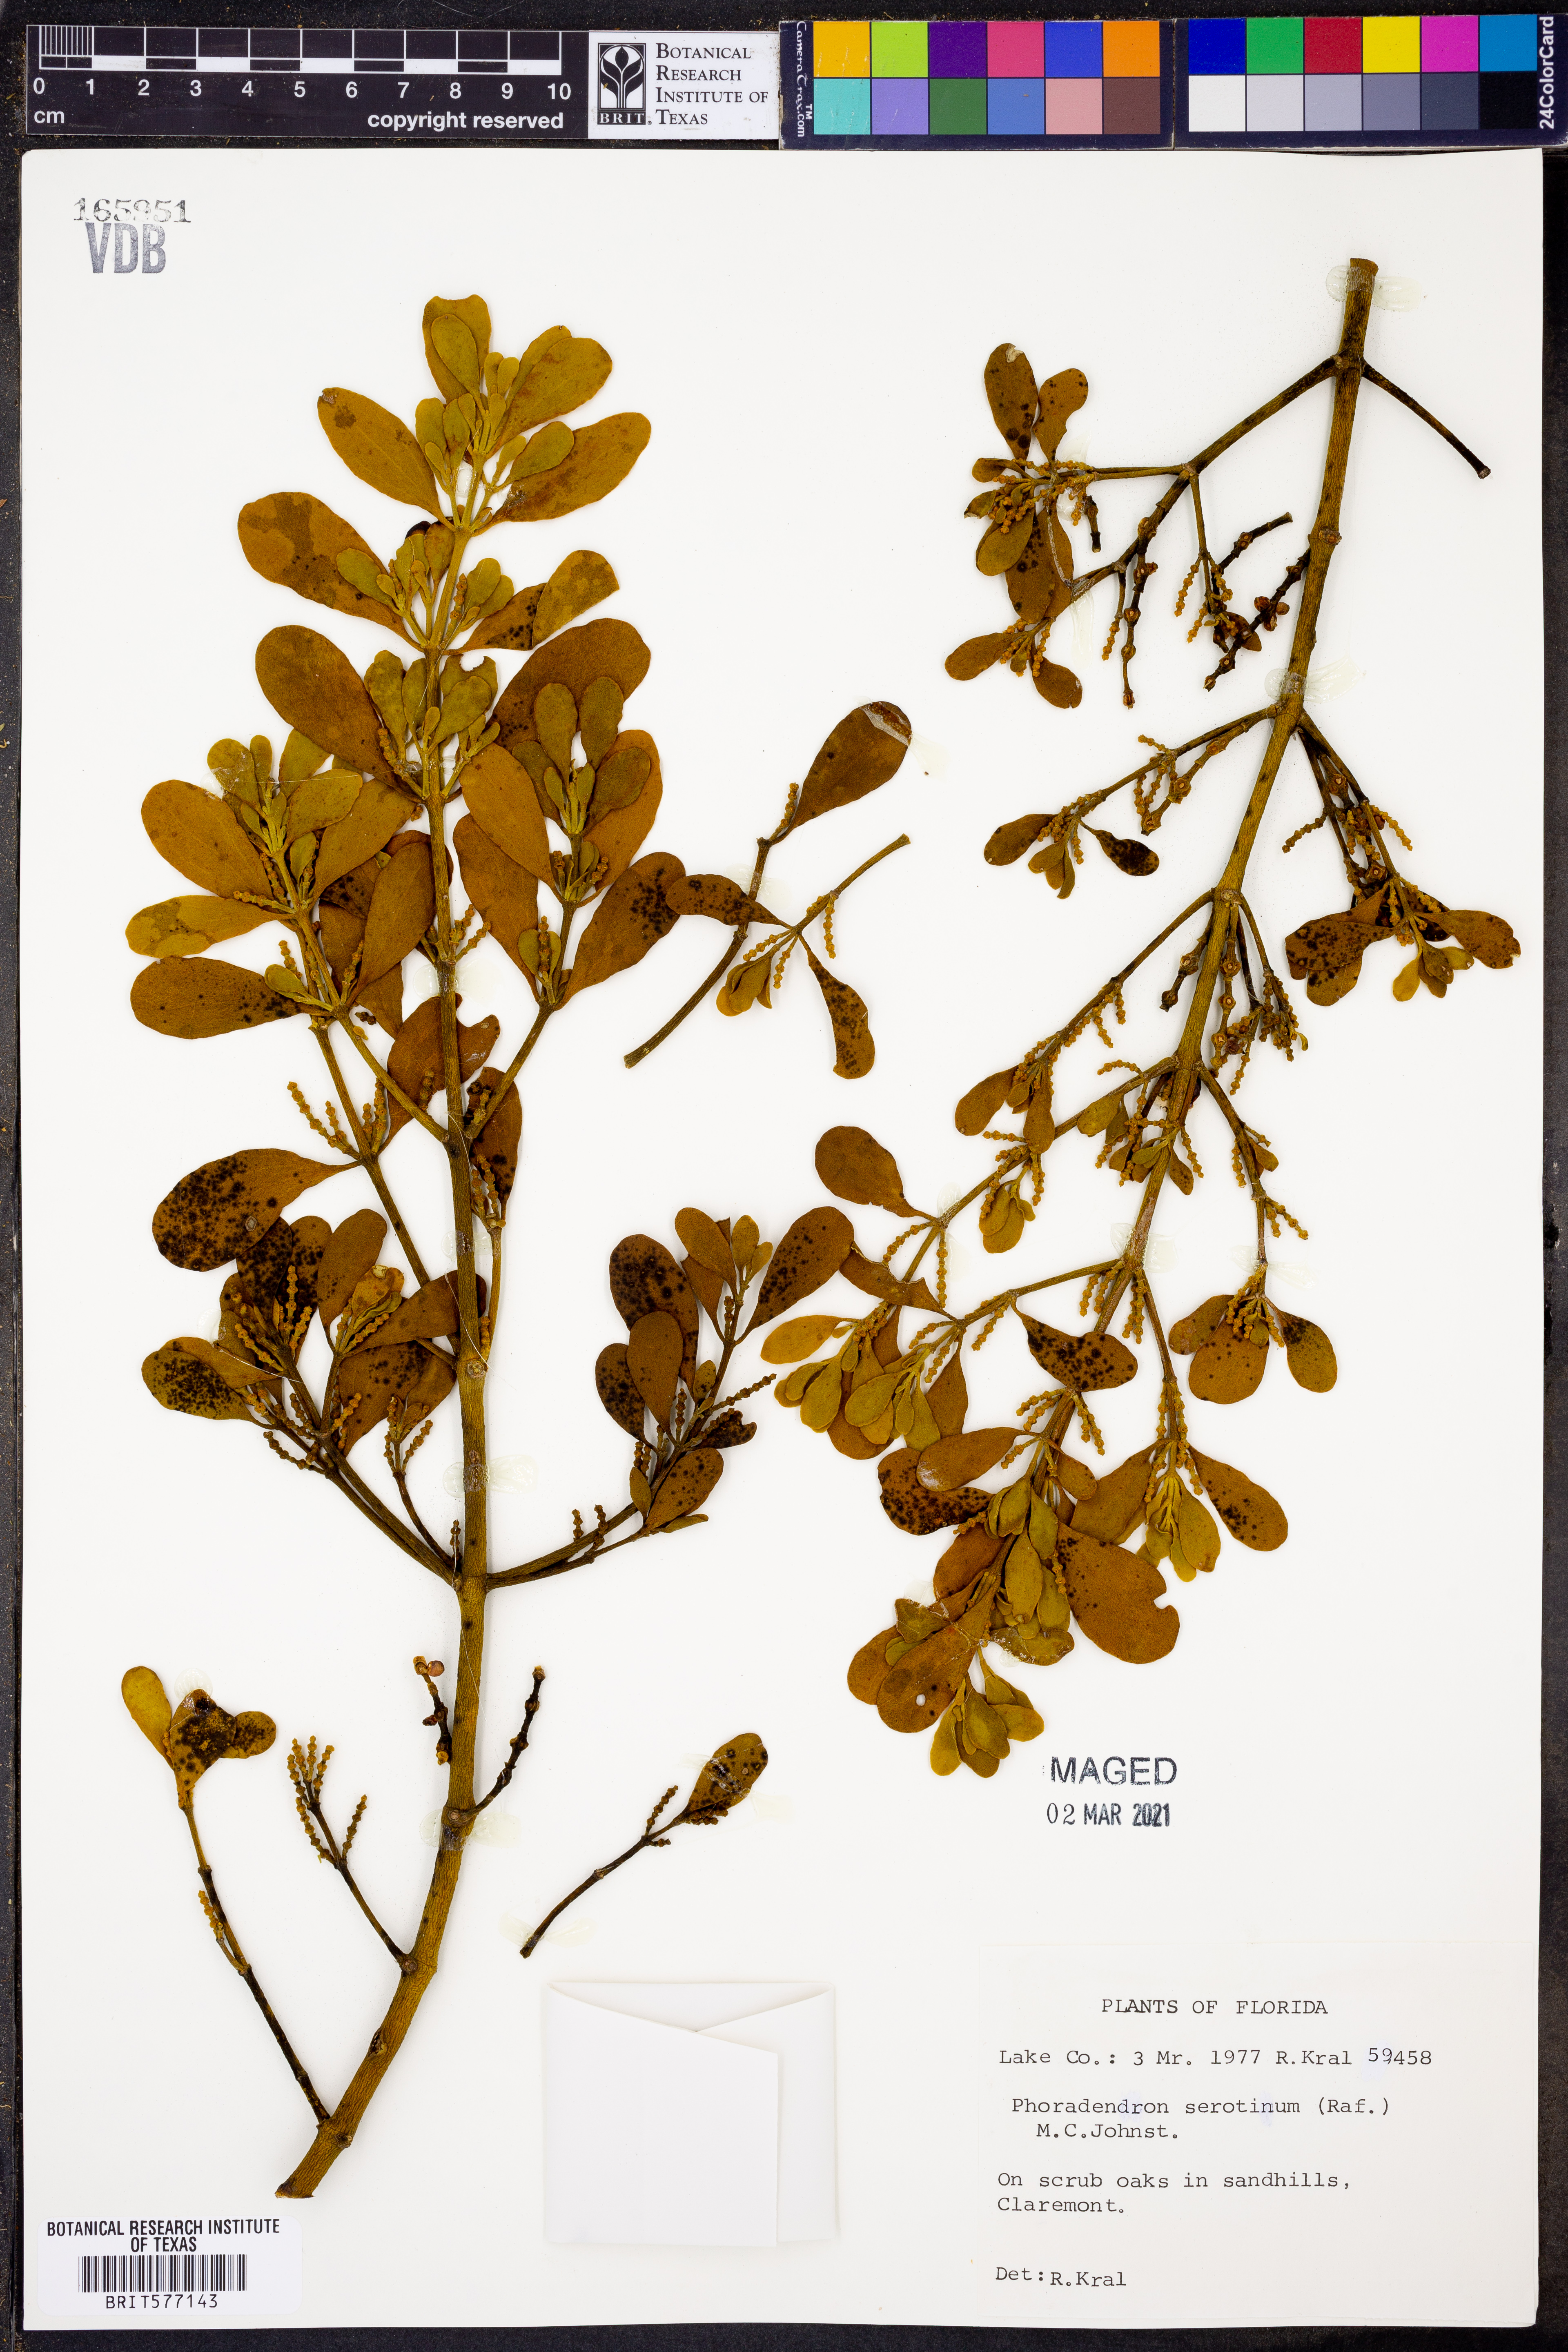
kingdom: Plantae
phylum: Tracheophyta
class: Magnoliopsida
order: Santalales
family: Viscaceae
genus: Phoradendron
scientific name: Phoradendron leucarpum
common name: Pacific mistletoe
